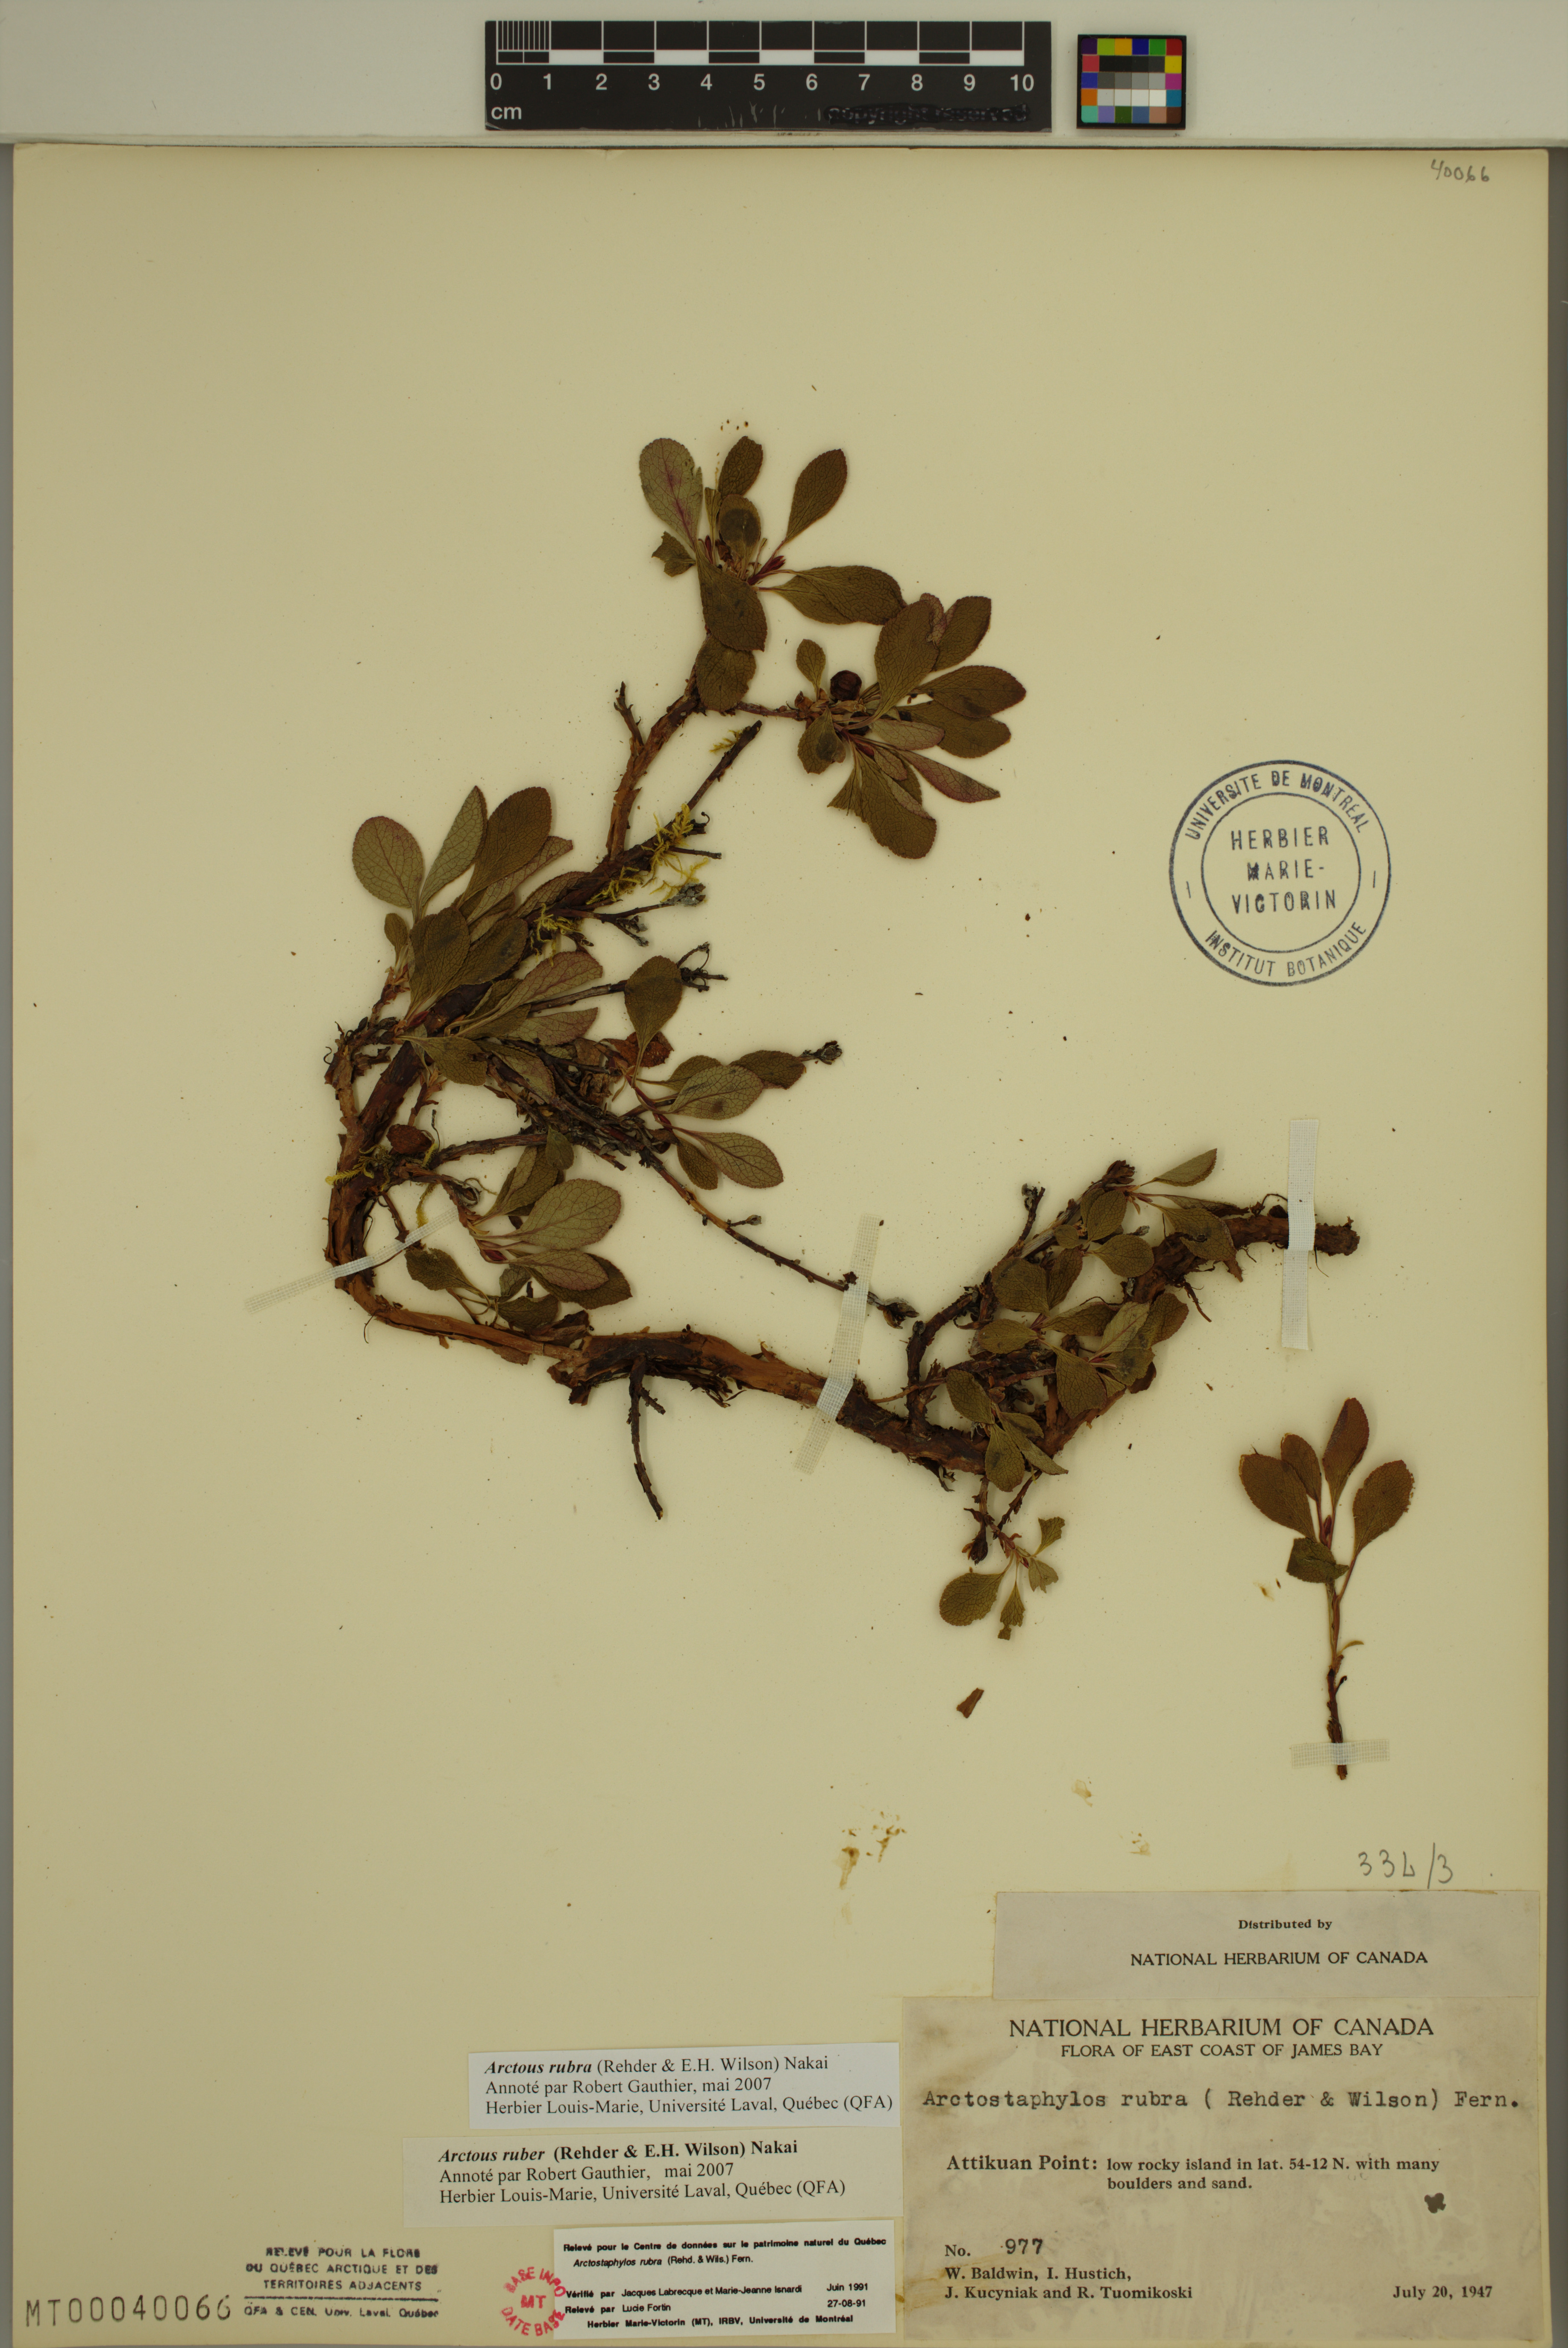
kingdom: Plantae
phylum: Tracheophyta
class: Magnoliopsida
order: Ericales
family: Ericaceae
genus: Arctostaphylos
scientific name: Arctostaphylos rubra
